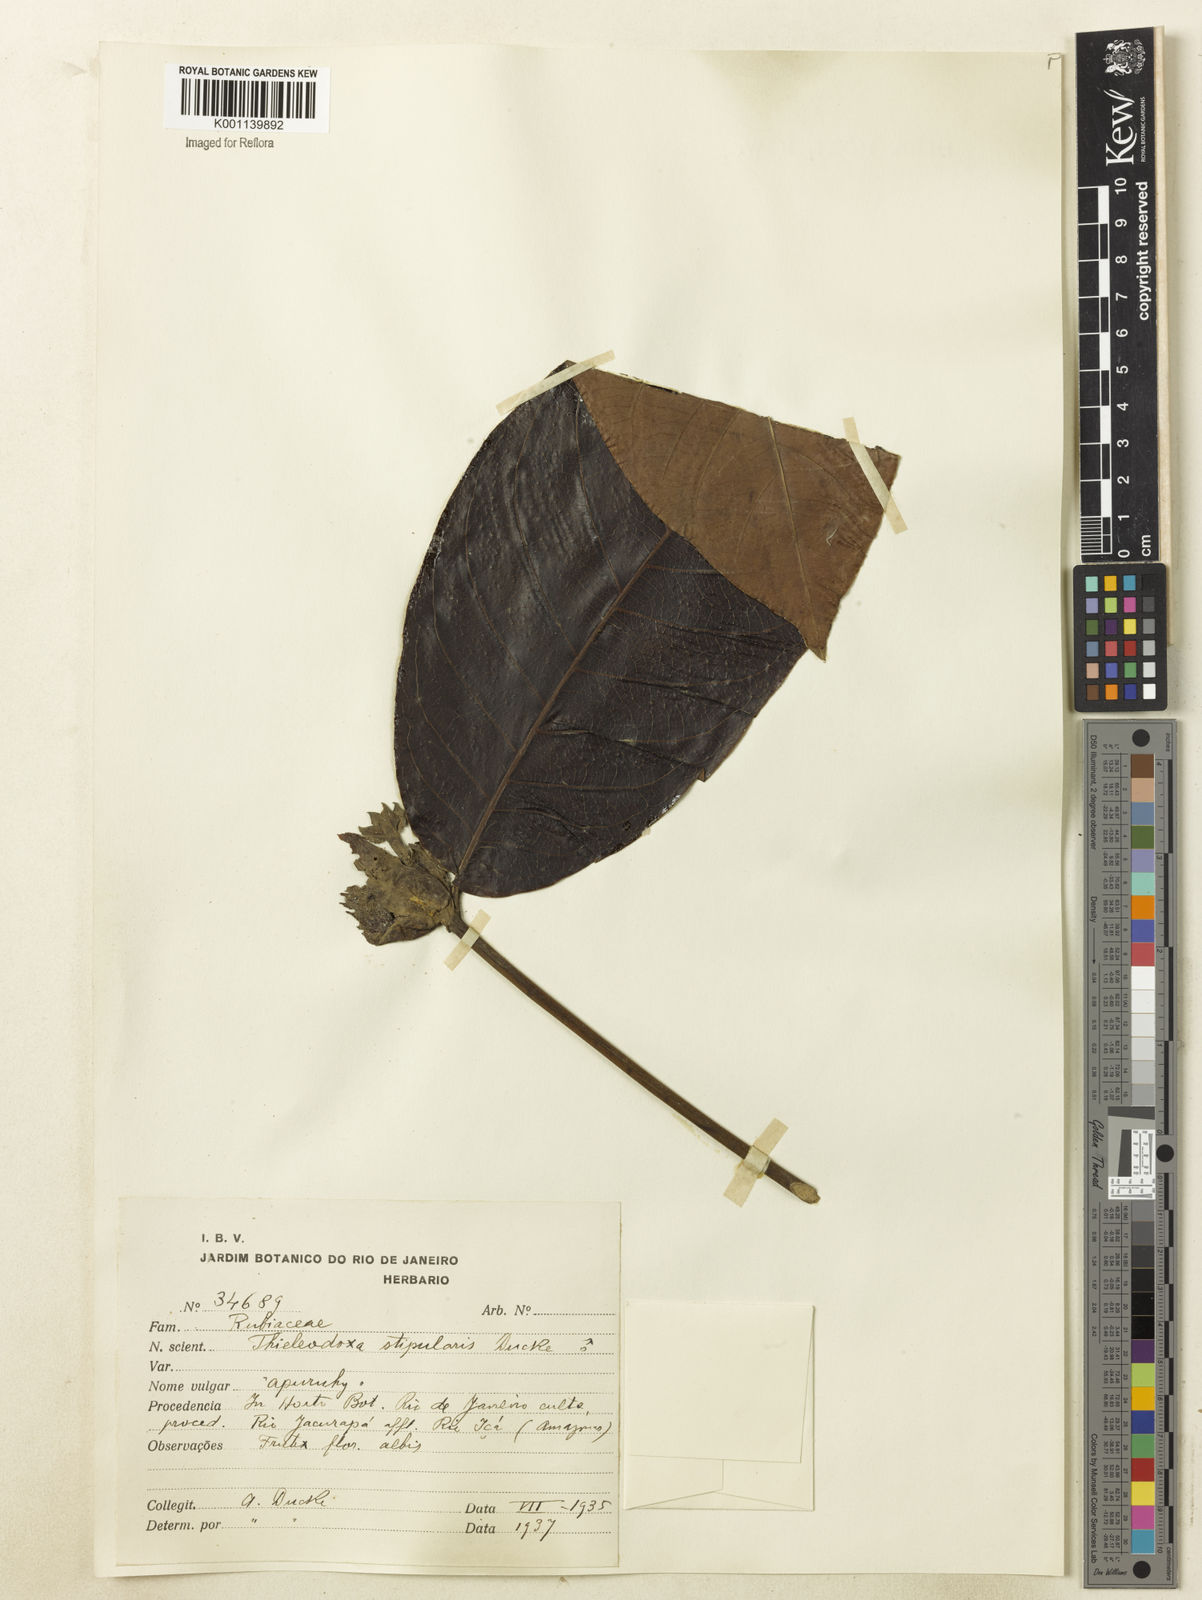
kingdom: Plantae
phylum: Tracheophyta
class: Magnoliopsida
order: Gentianales
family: Rubiaceae
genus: Alibertia
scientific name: Alibertia verticillata
